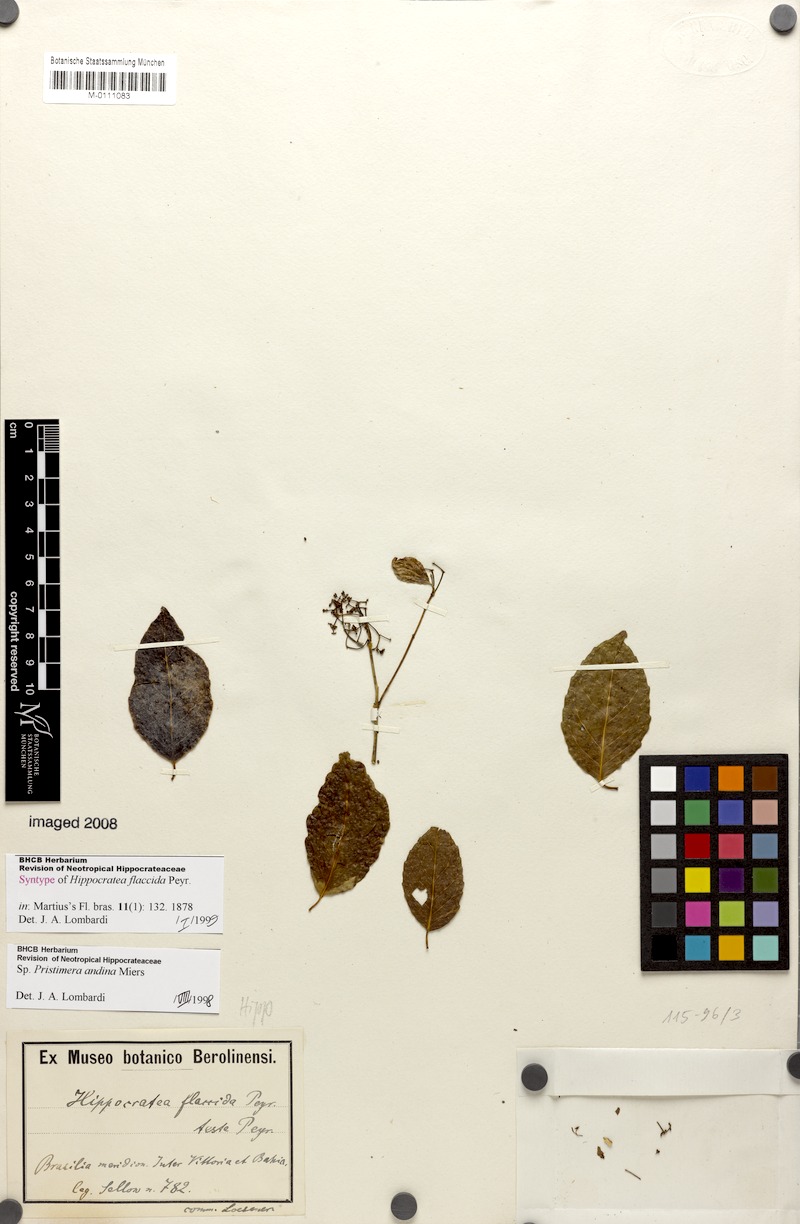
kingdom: Plantae
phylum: Tracheophyta
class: Magnoliopsida
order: Celastrales
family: Celastraceae
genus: Pristimera
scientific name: Pristimera celastroides
